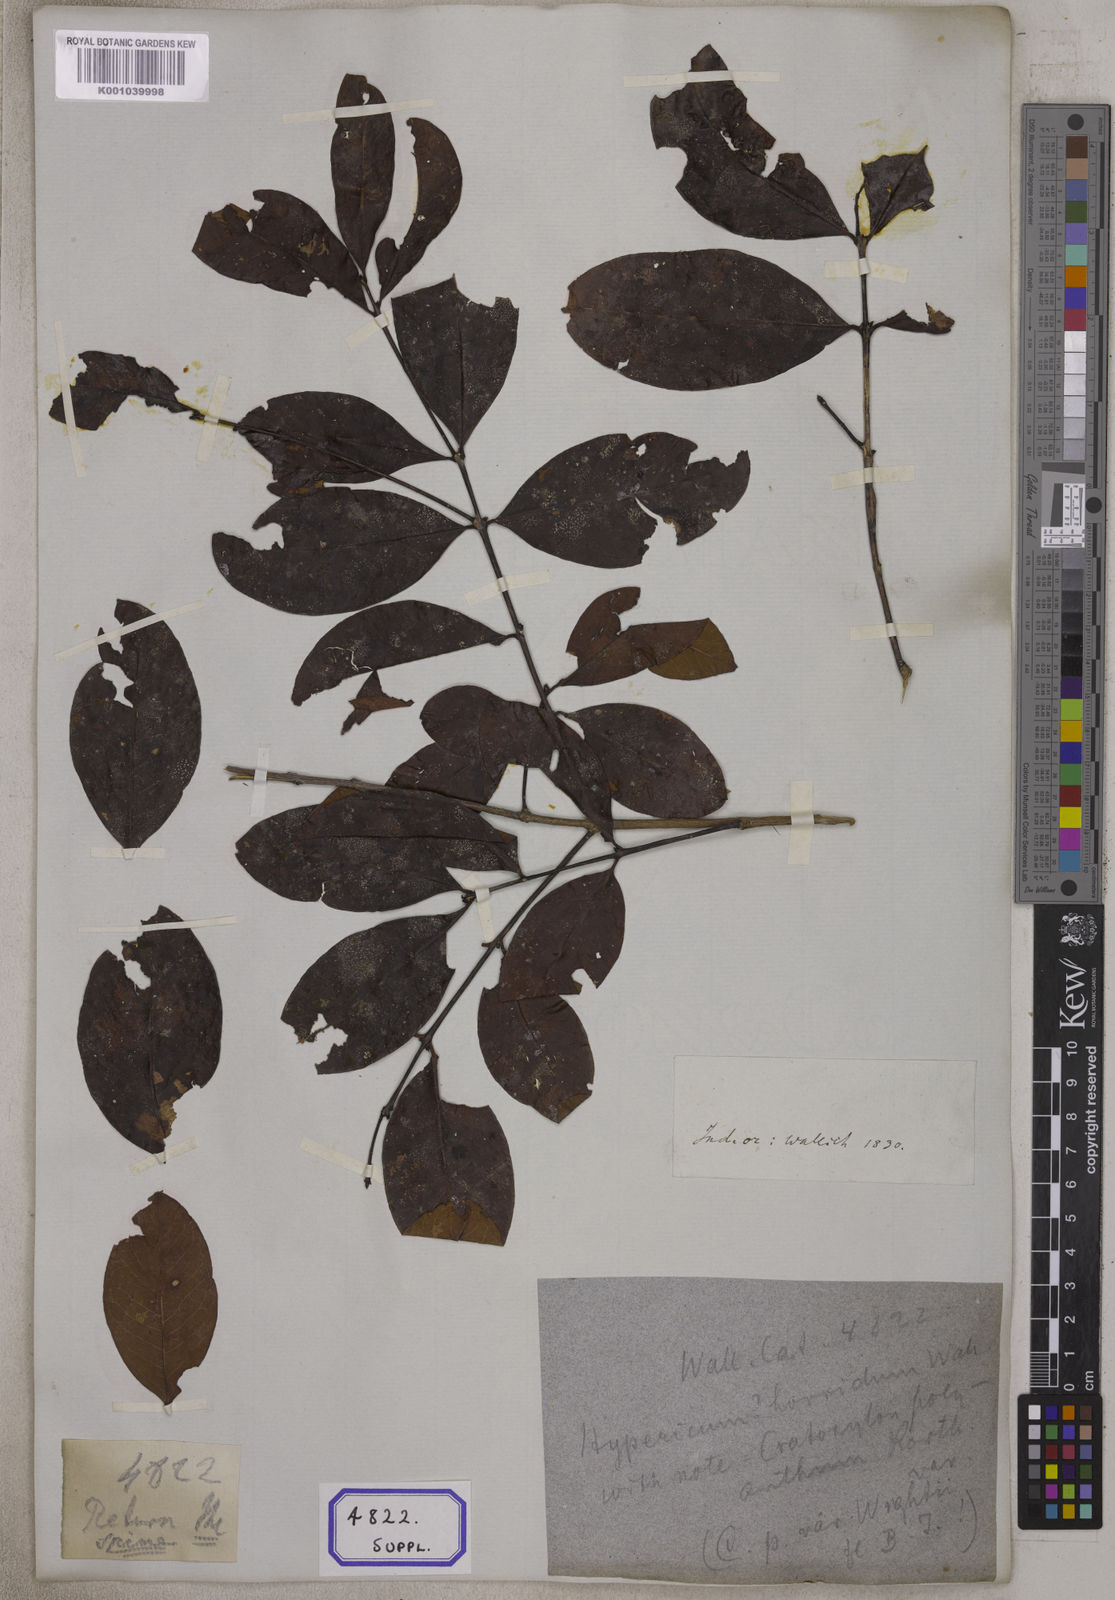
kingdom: Plantae
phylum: Tracheophyta
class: Magnoliopsida
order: Malpighiales
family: Hypericaceae
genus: Cratoxylum
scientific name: Cratoxylum cochinchinense
